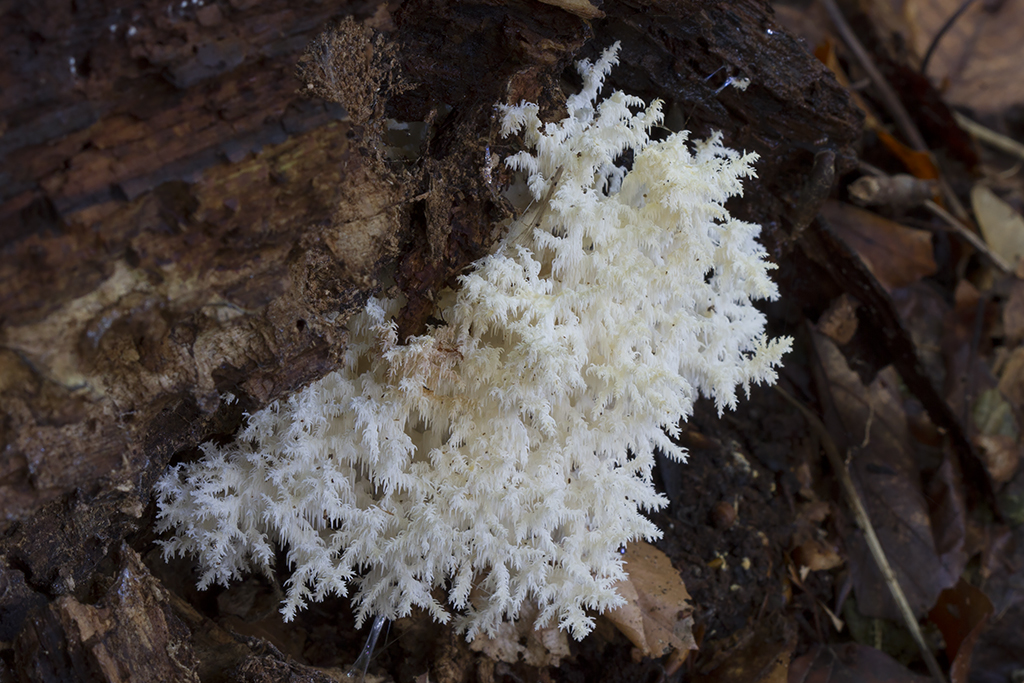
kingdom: Fungi
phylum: Basidiomycota
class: Agaricomycetes
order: Russulales
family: Hericiaceae
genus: Hericium
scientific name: Hericium coralloides
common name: koralpigsvamp
